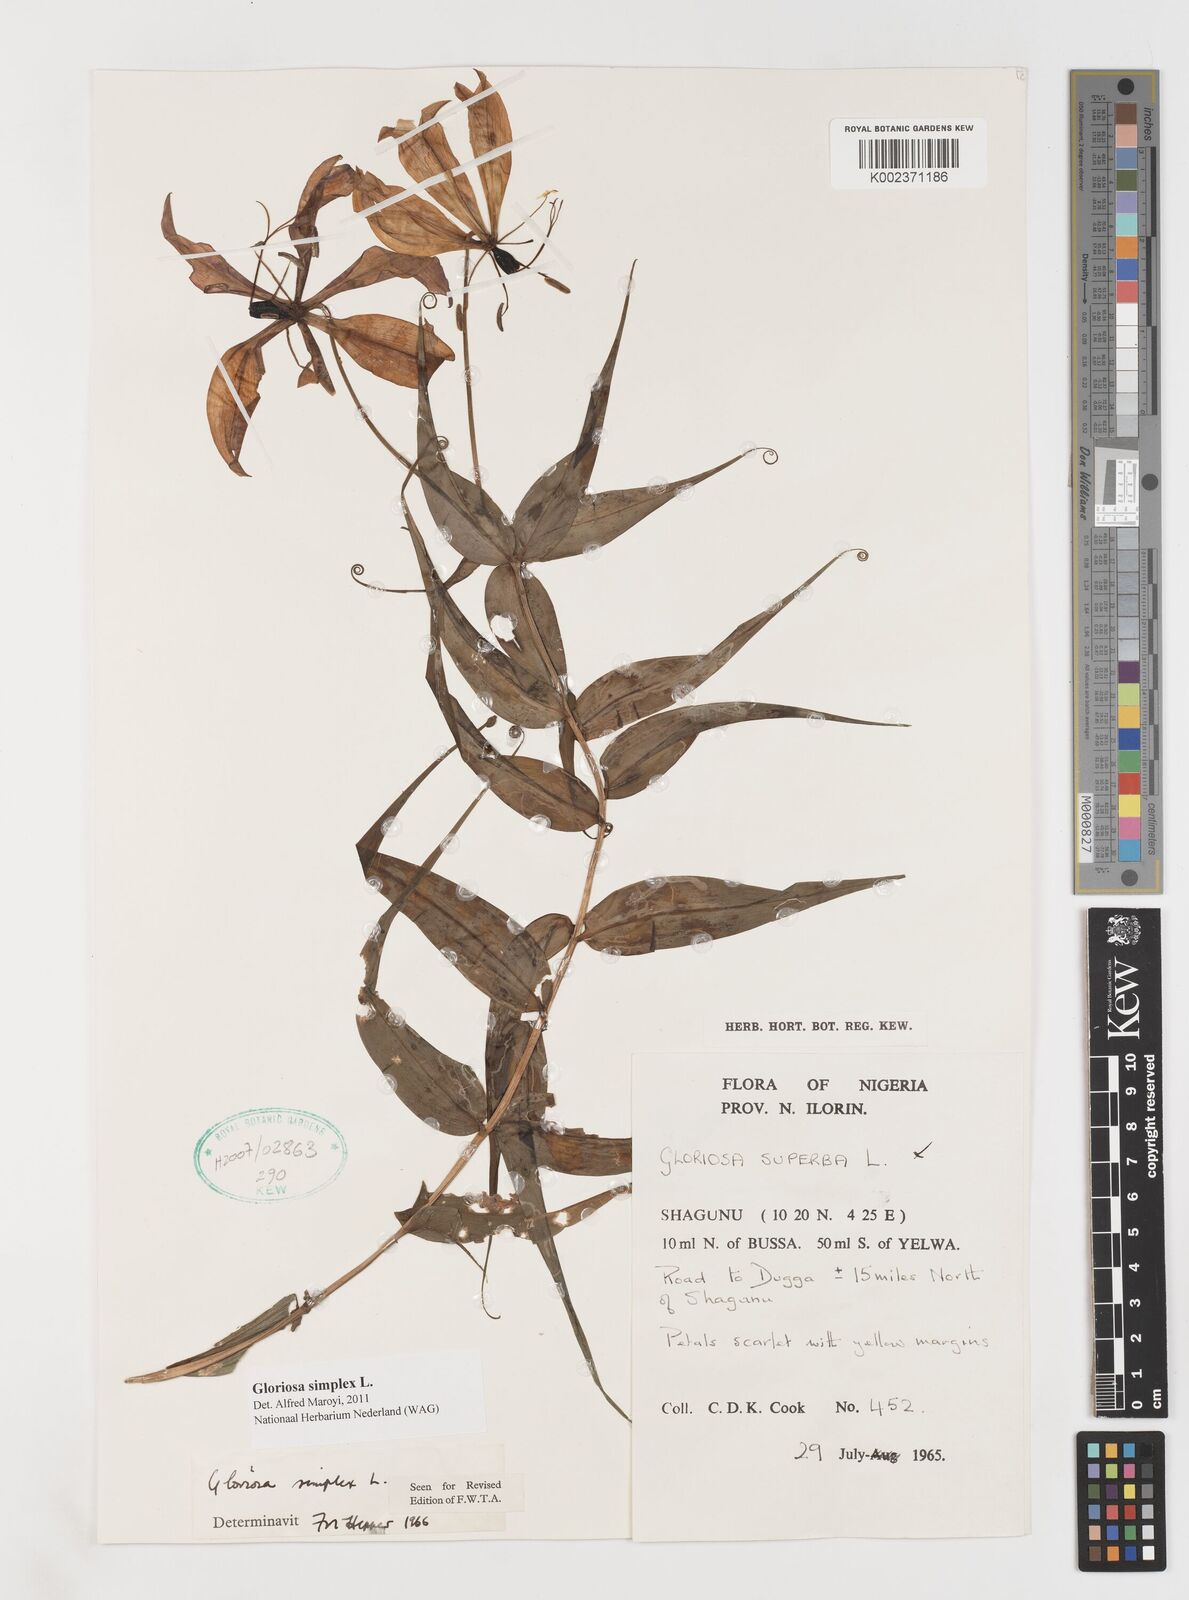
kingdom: Plantae
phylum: Tracheophyta
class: Liliopsida
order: Liliales
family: Colchicaceae
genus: Gloriosa
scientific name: Gloriosa simplex
